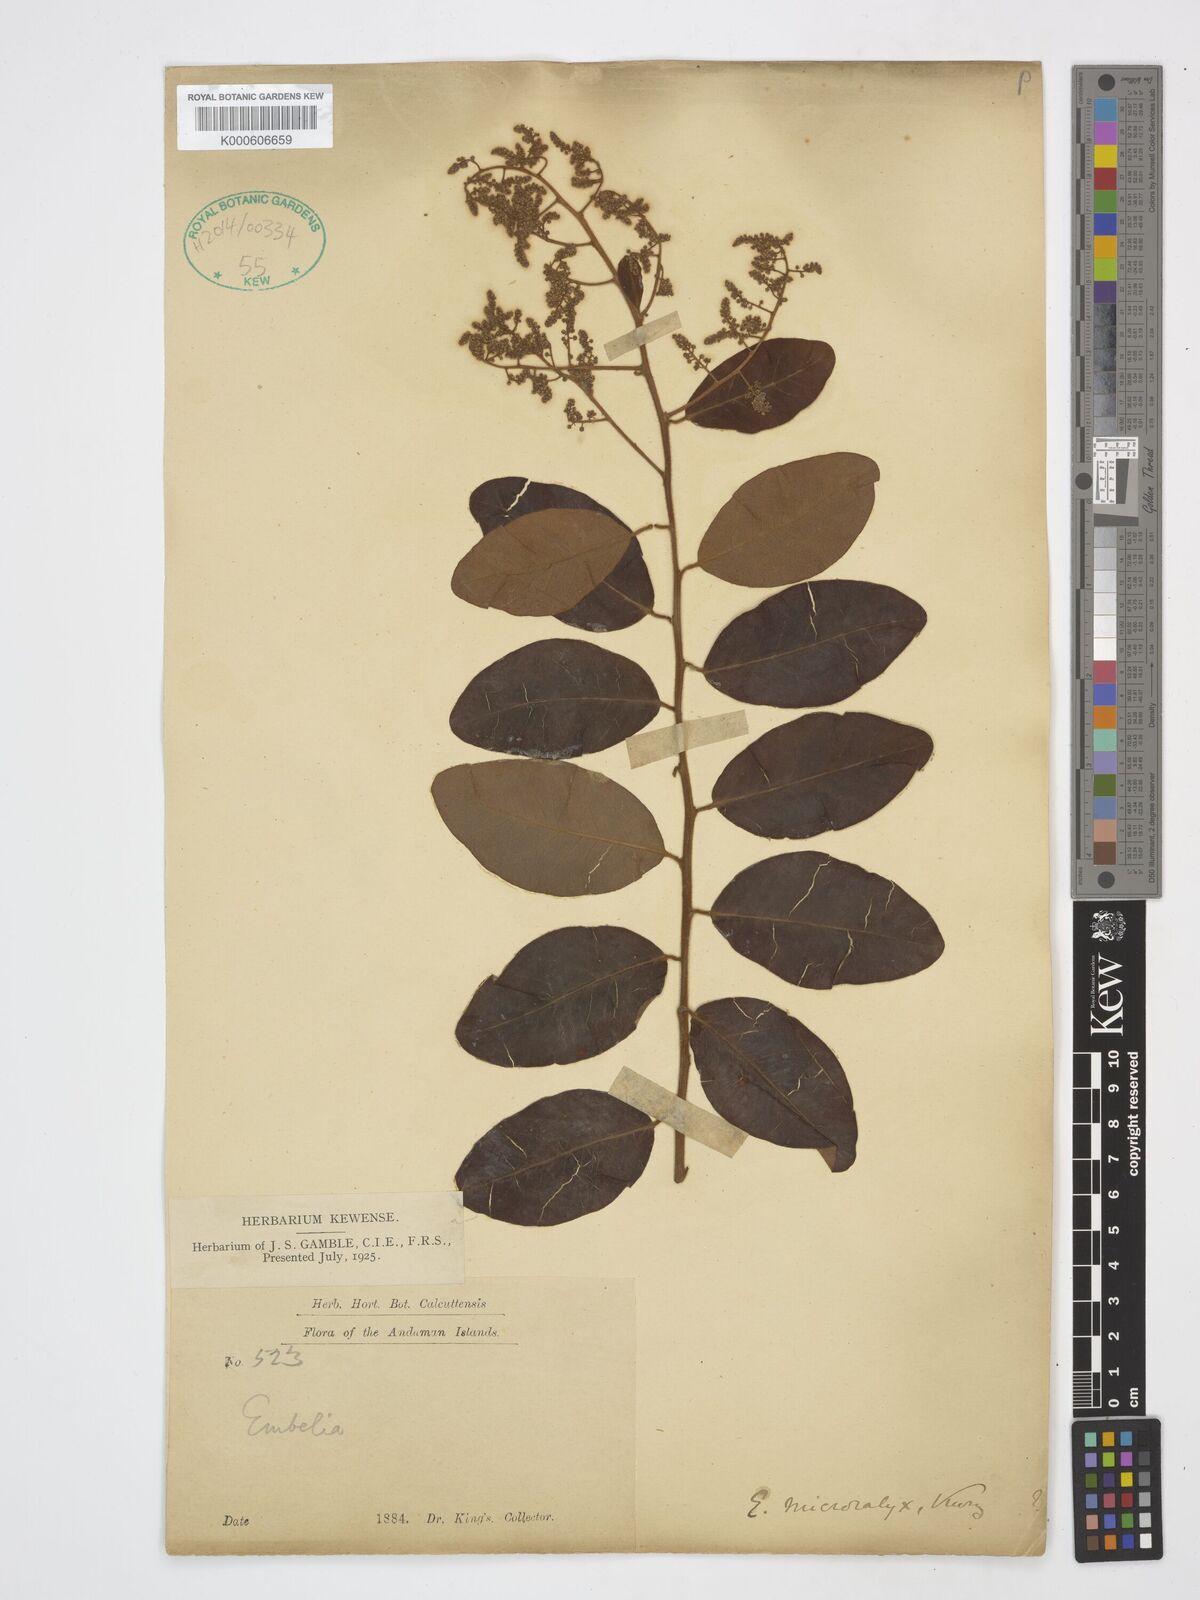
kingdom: Plantae
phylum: Tracheophyta
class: Magnoliopsida
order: Ericales
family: Primulaceae
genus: Embelia
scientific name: Embelia microcalyx
